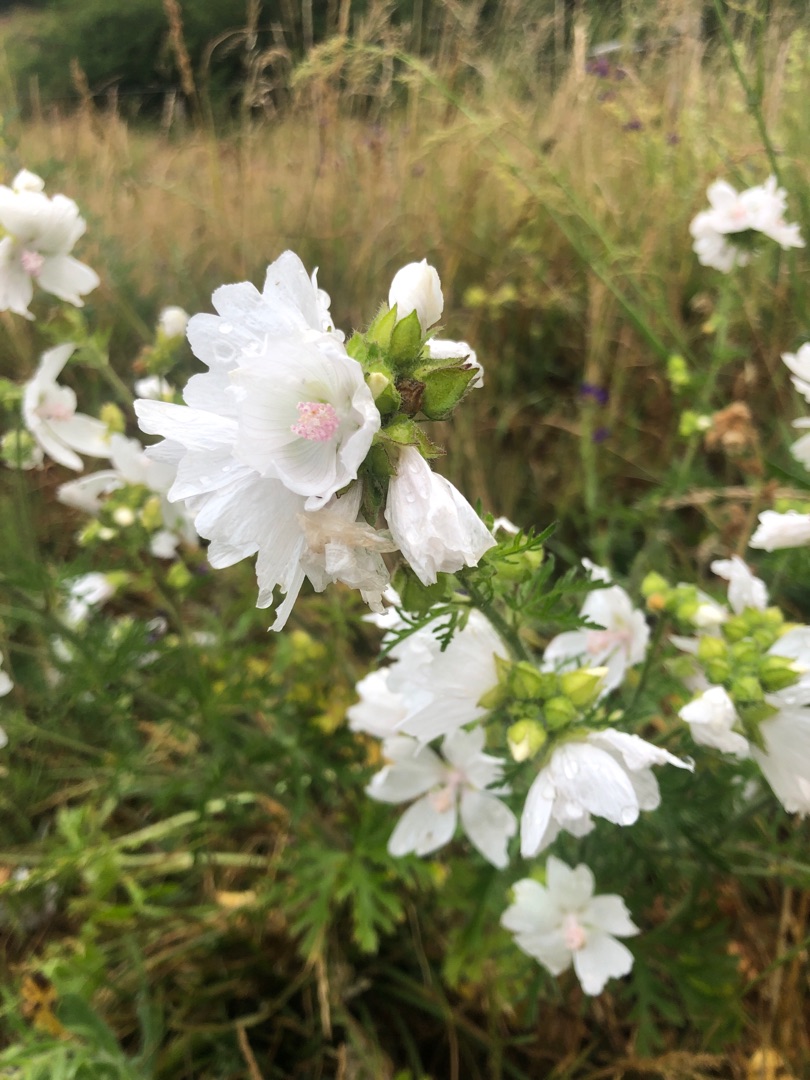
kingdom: Plantae
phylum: Tracheophyta
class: Magnoliopsida
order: Malvales
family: Malvaceae
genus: Malva
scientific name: Malva moschata
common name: Moskus-katost
